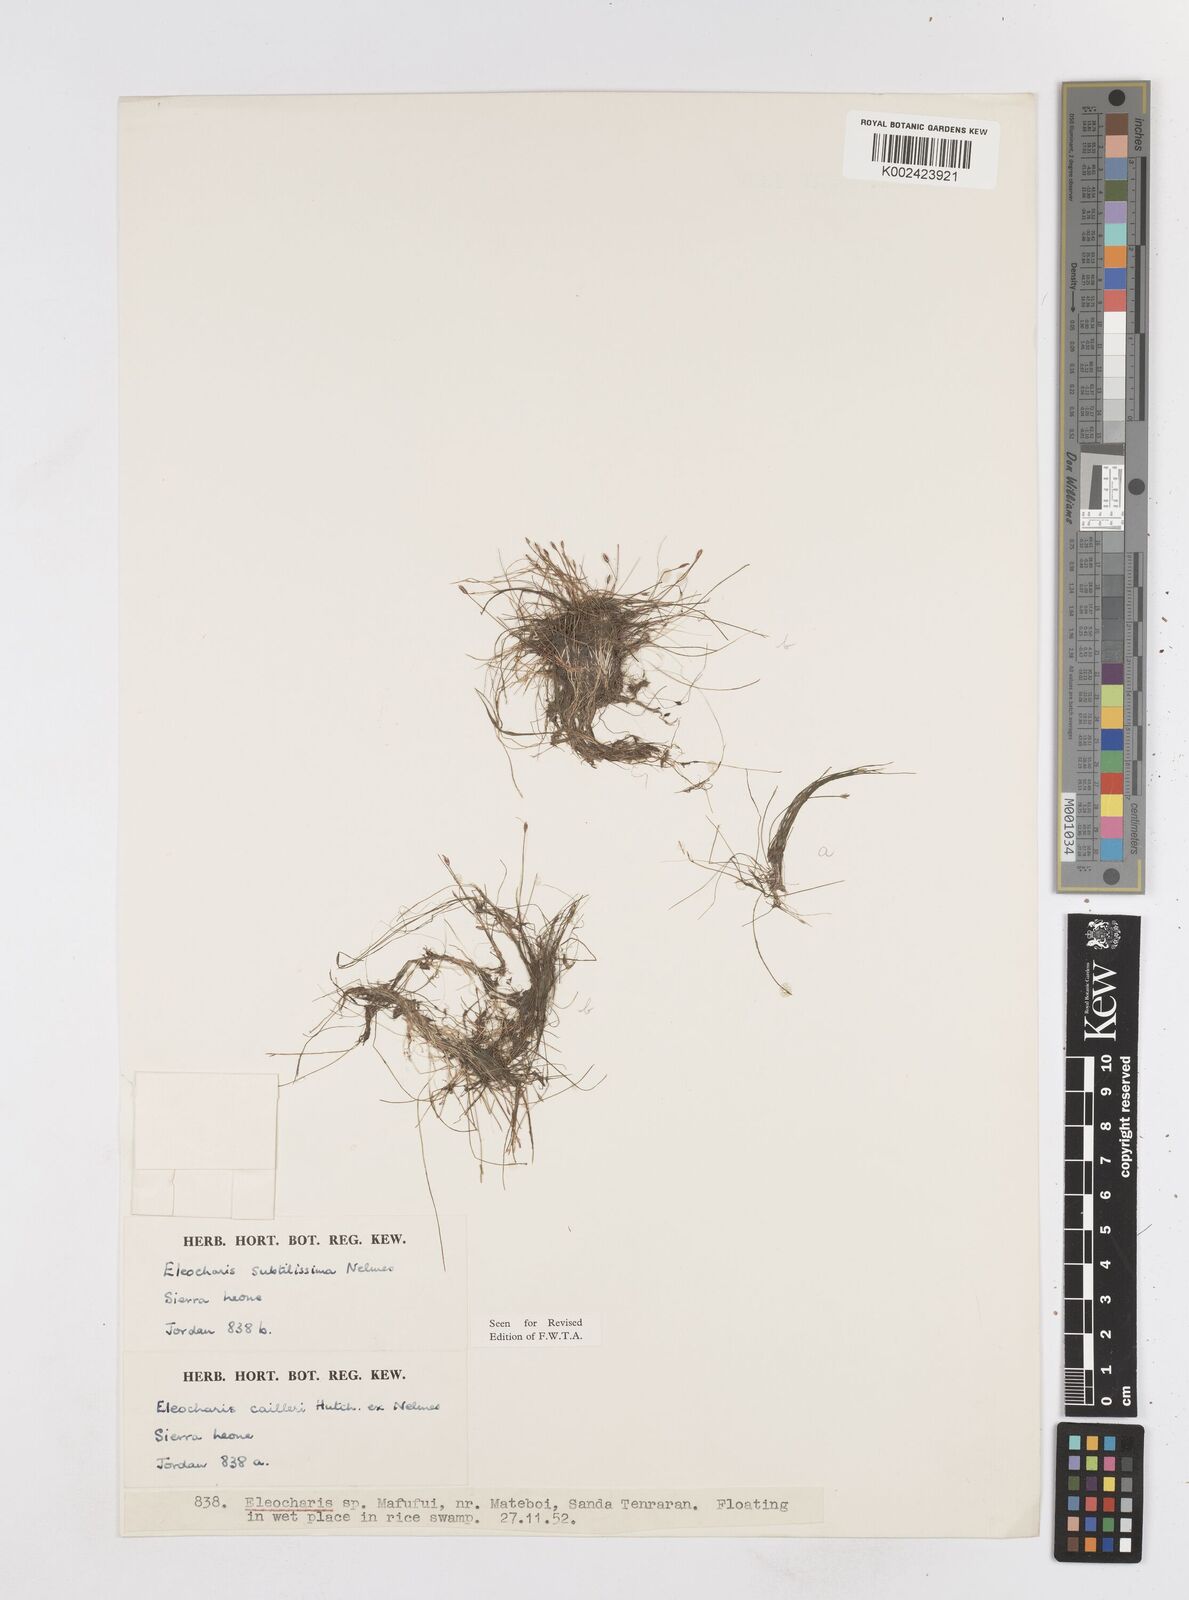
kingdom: Plantae
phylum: Tracheophyta
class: Liliopsida
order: Poales
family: Cyperaceae
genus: Eleocharis
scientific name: Eleocharis retroflexa
